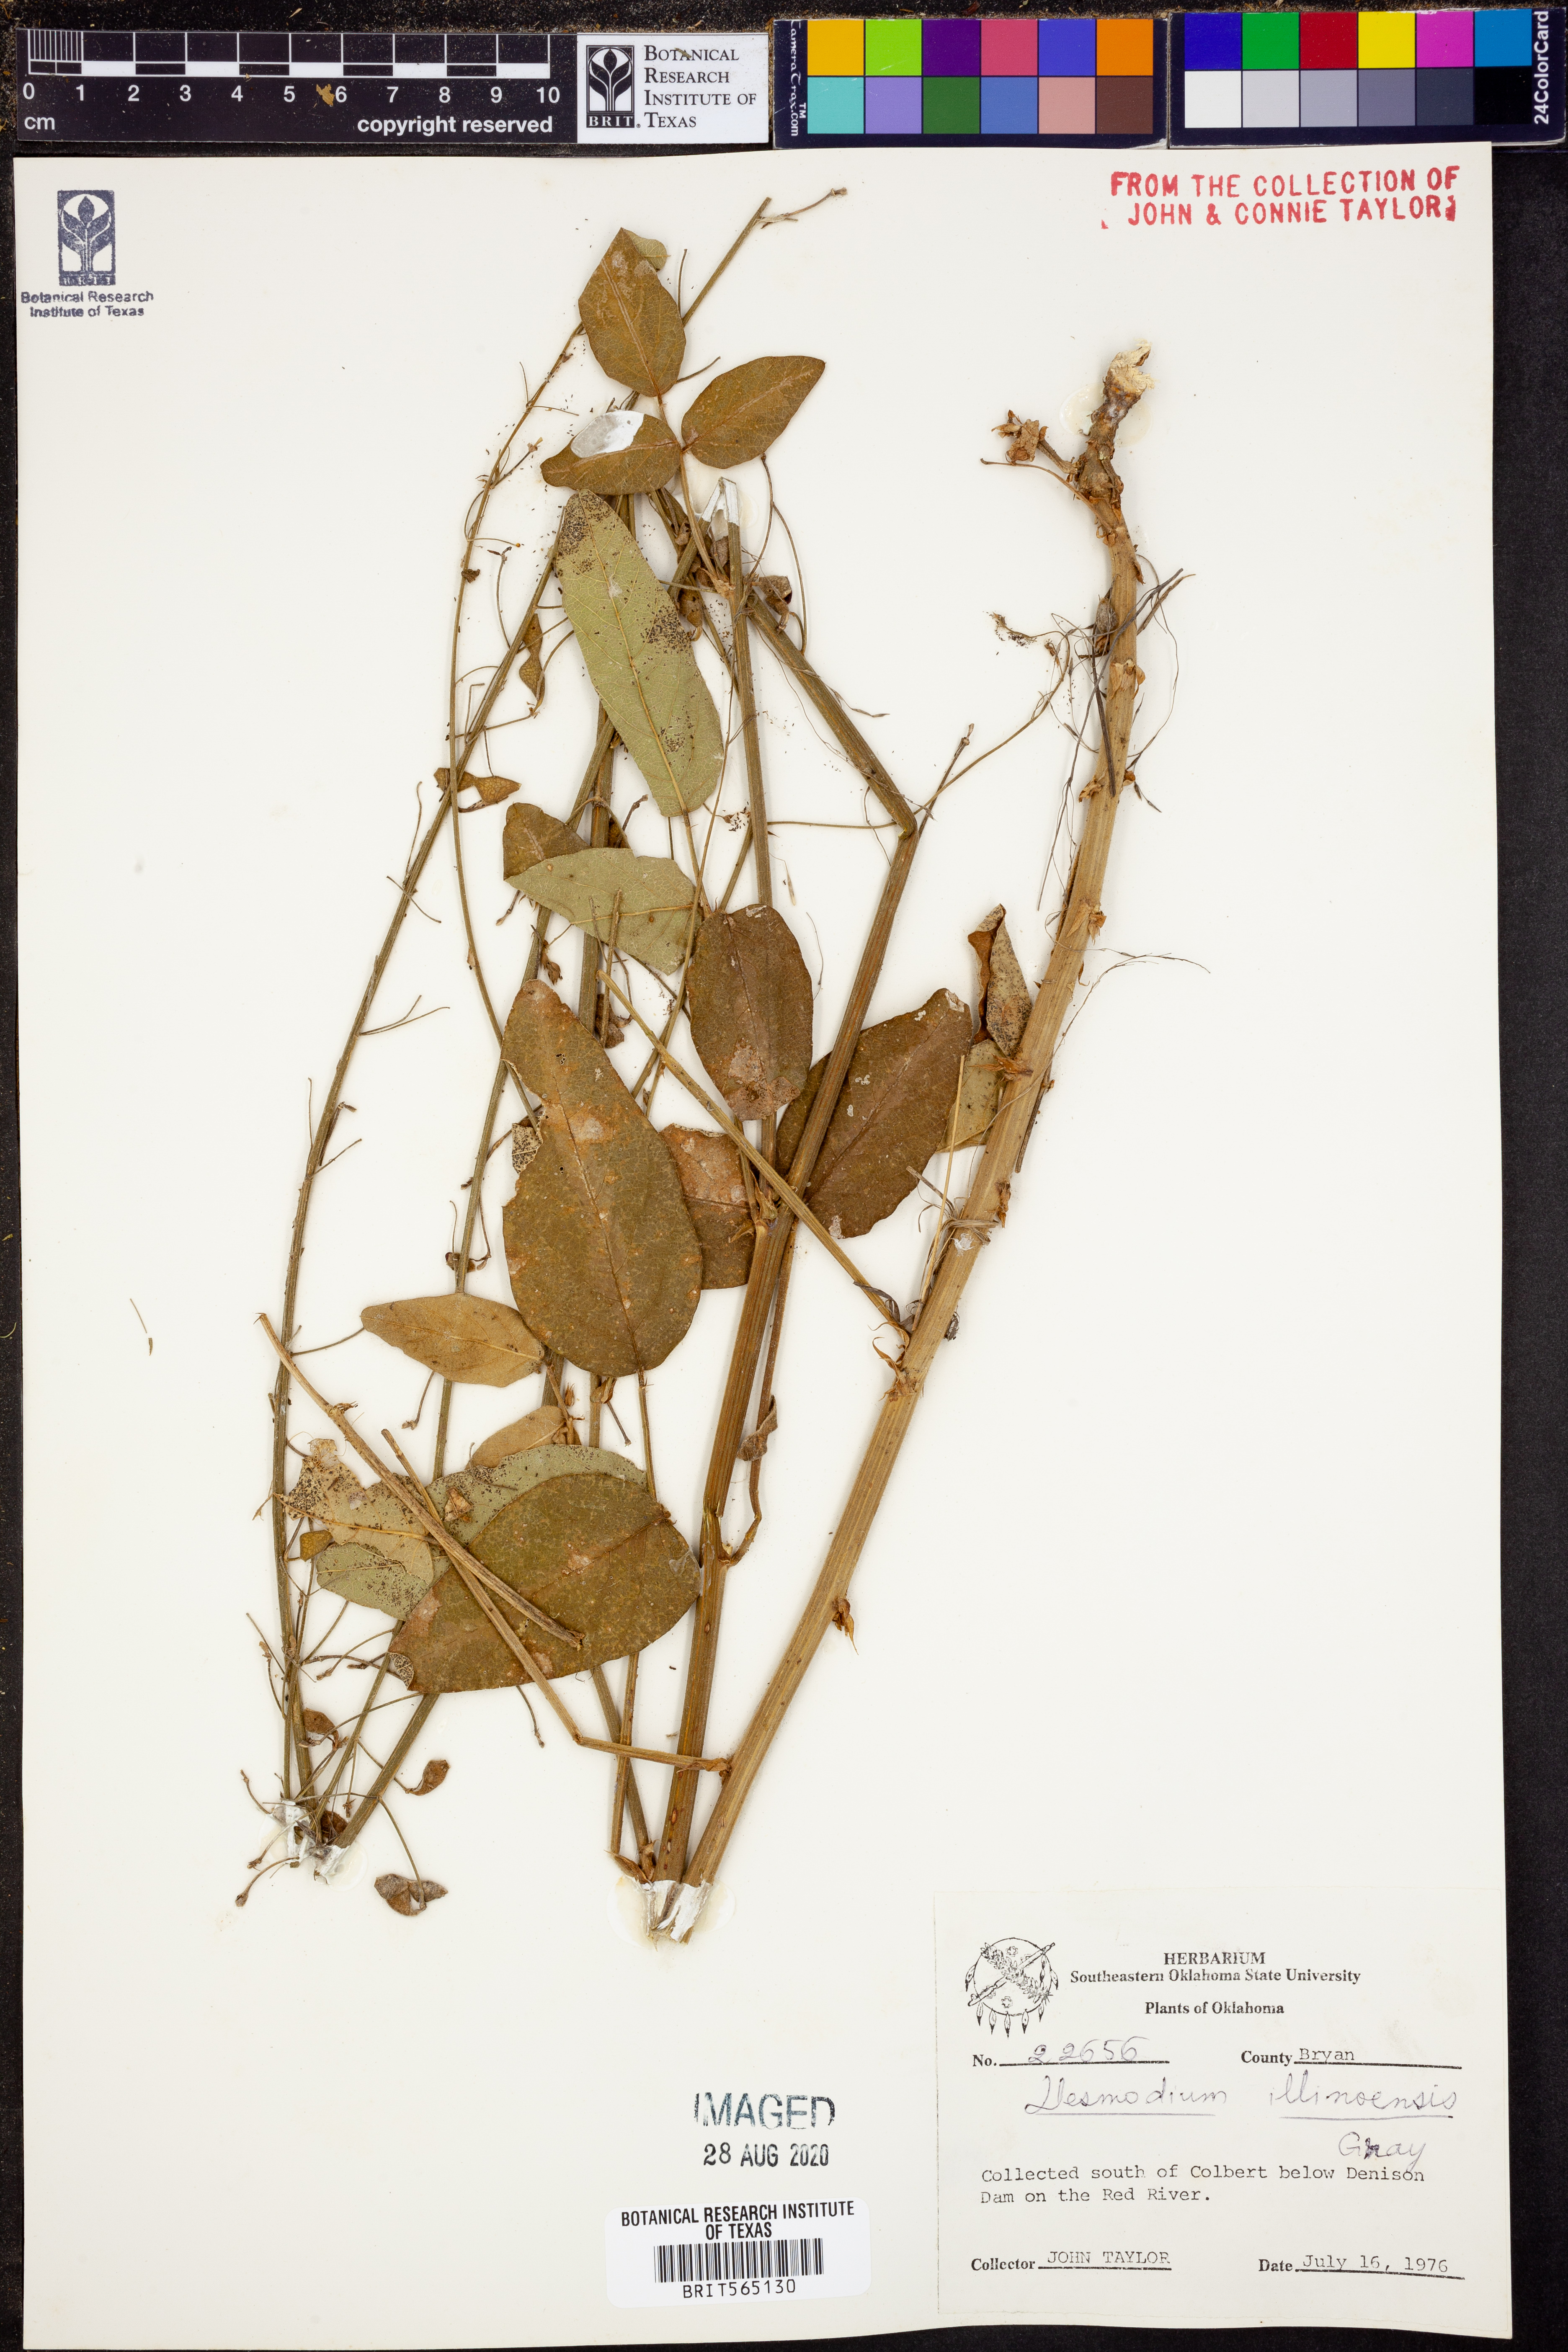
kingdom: Plantae
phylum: Tracheophyta
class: Magnoliopsida
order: Fabales
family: Fabaceae
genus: Desmodium
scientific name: Desmodium illinoense
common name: Illinois tick-clover
